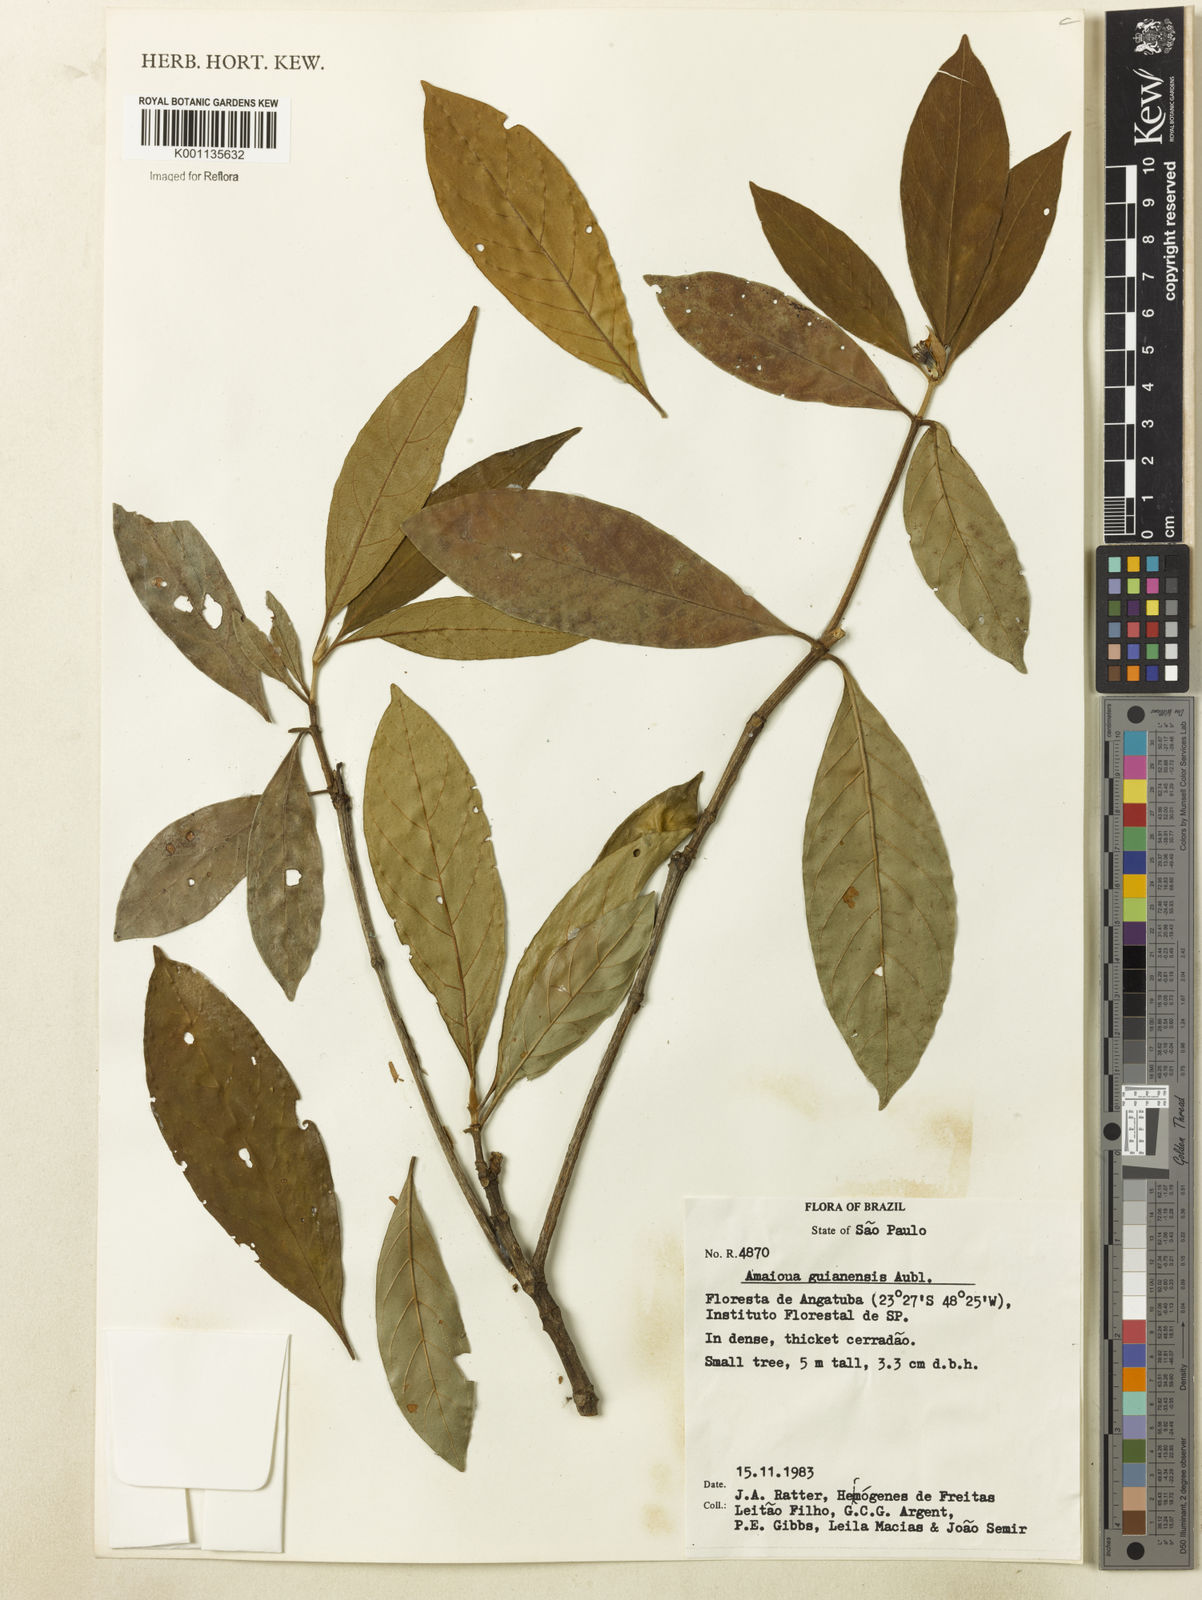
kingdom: Plantae
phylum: Tracheophyta
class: Magnoliopsida
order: Gentianales
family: Rubiaceae
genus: Amaioua
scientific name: Amaioua intermedia
